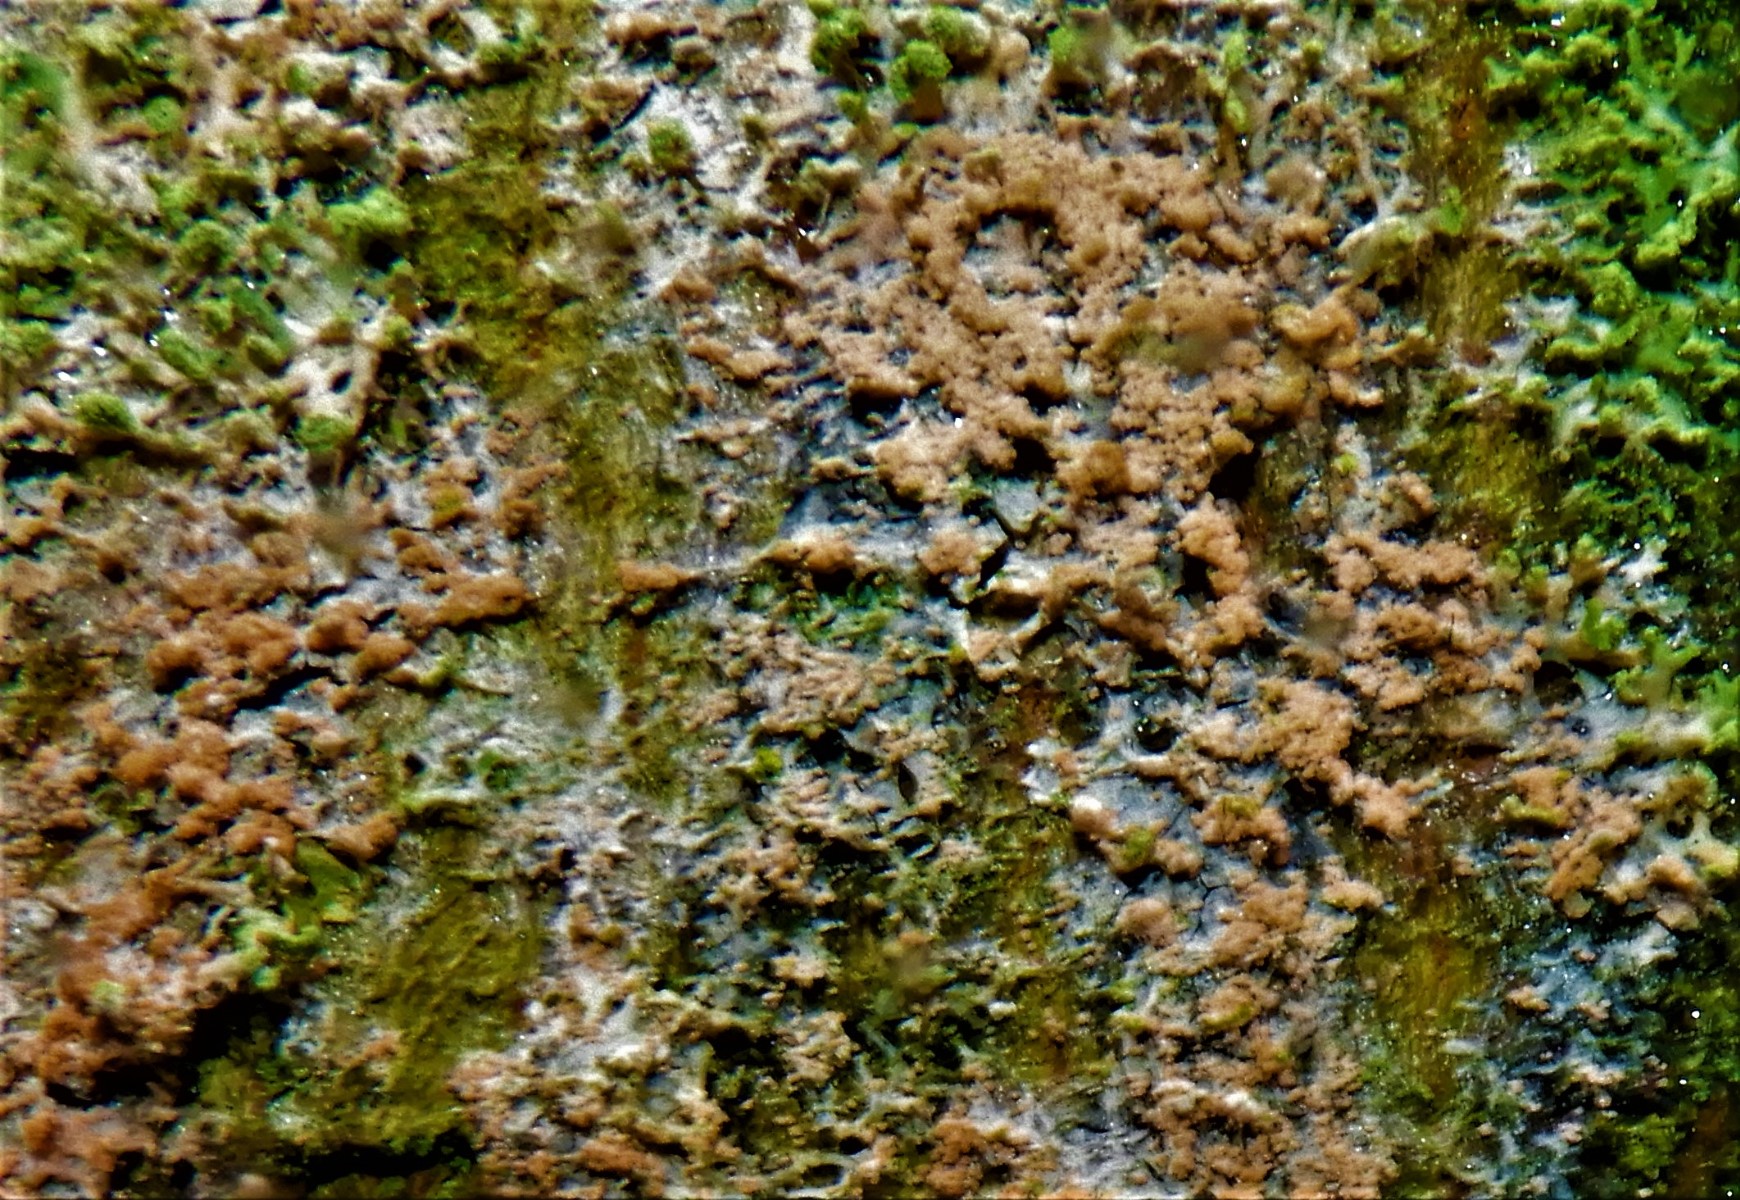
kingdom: Fungi
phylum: Basidiomycota
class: Agaricomycetes
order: Corticiales
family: Corticiaceae
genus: Erythricium
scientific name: Erythricium aurantiacum
